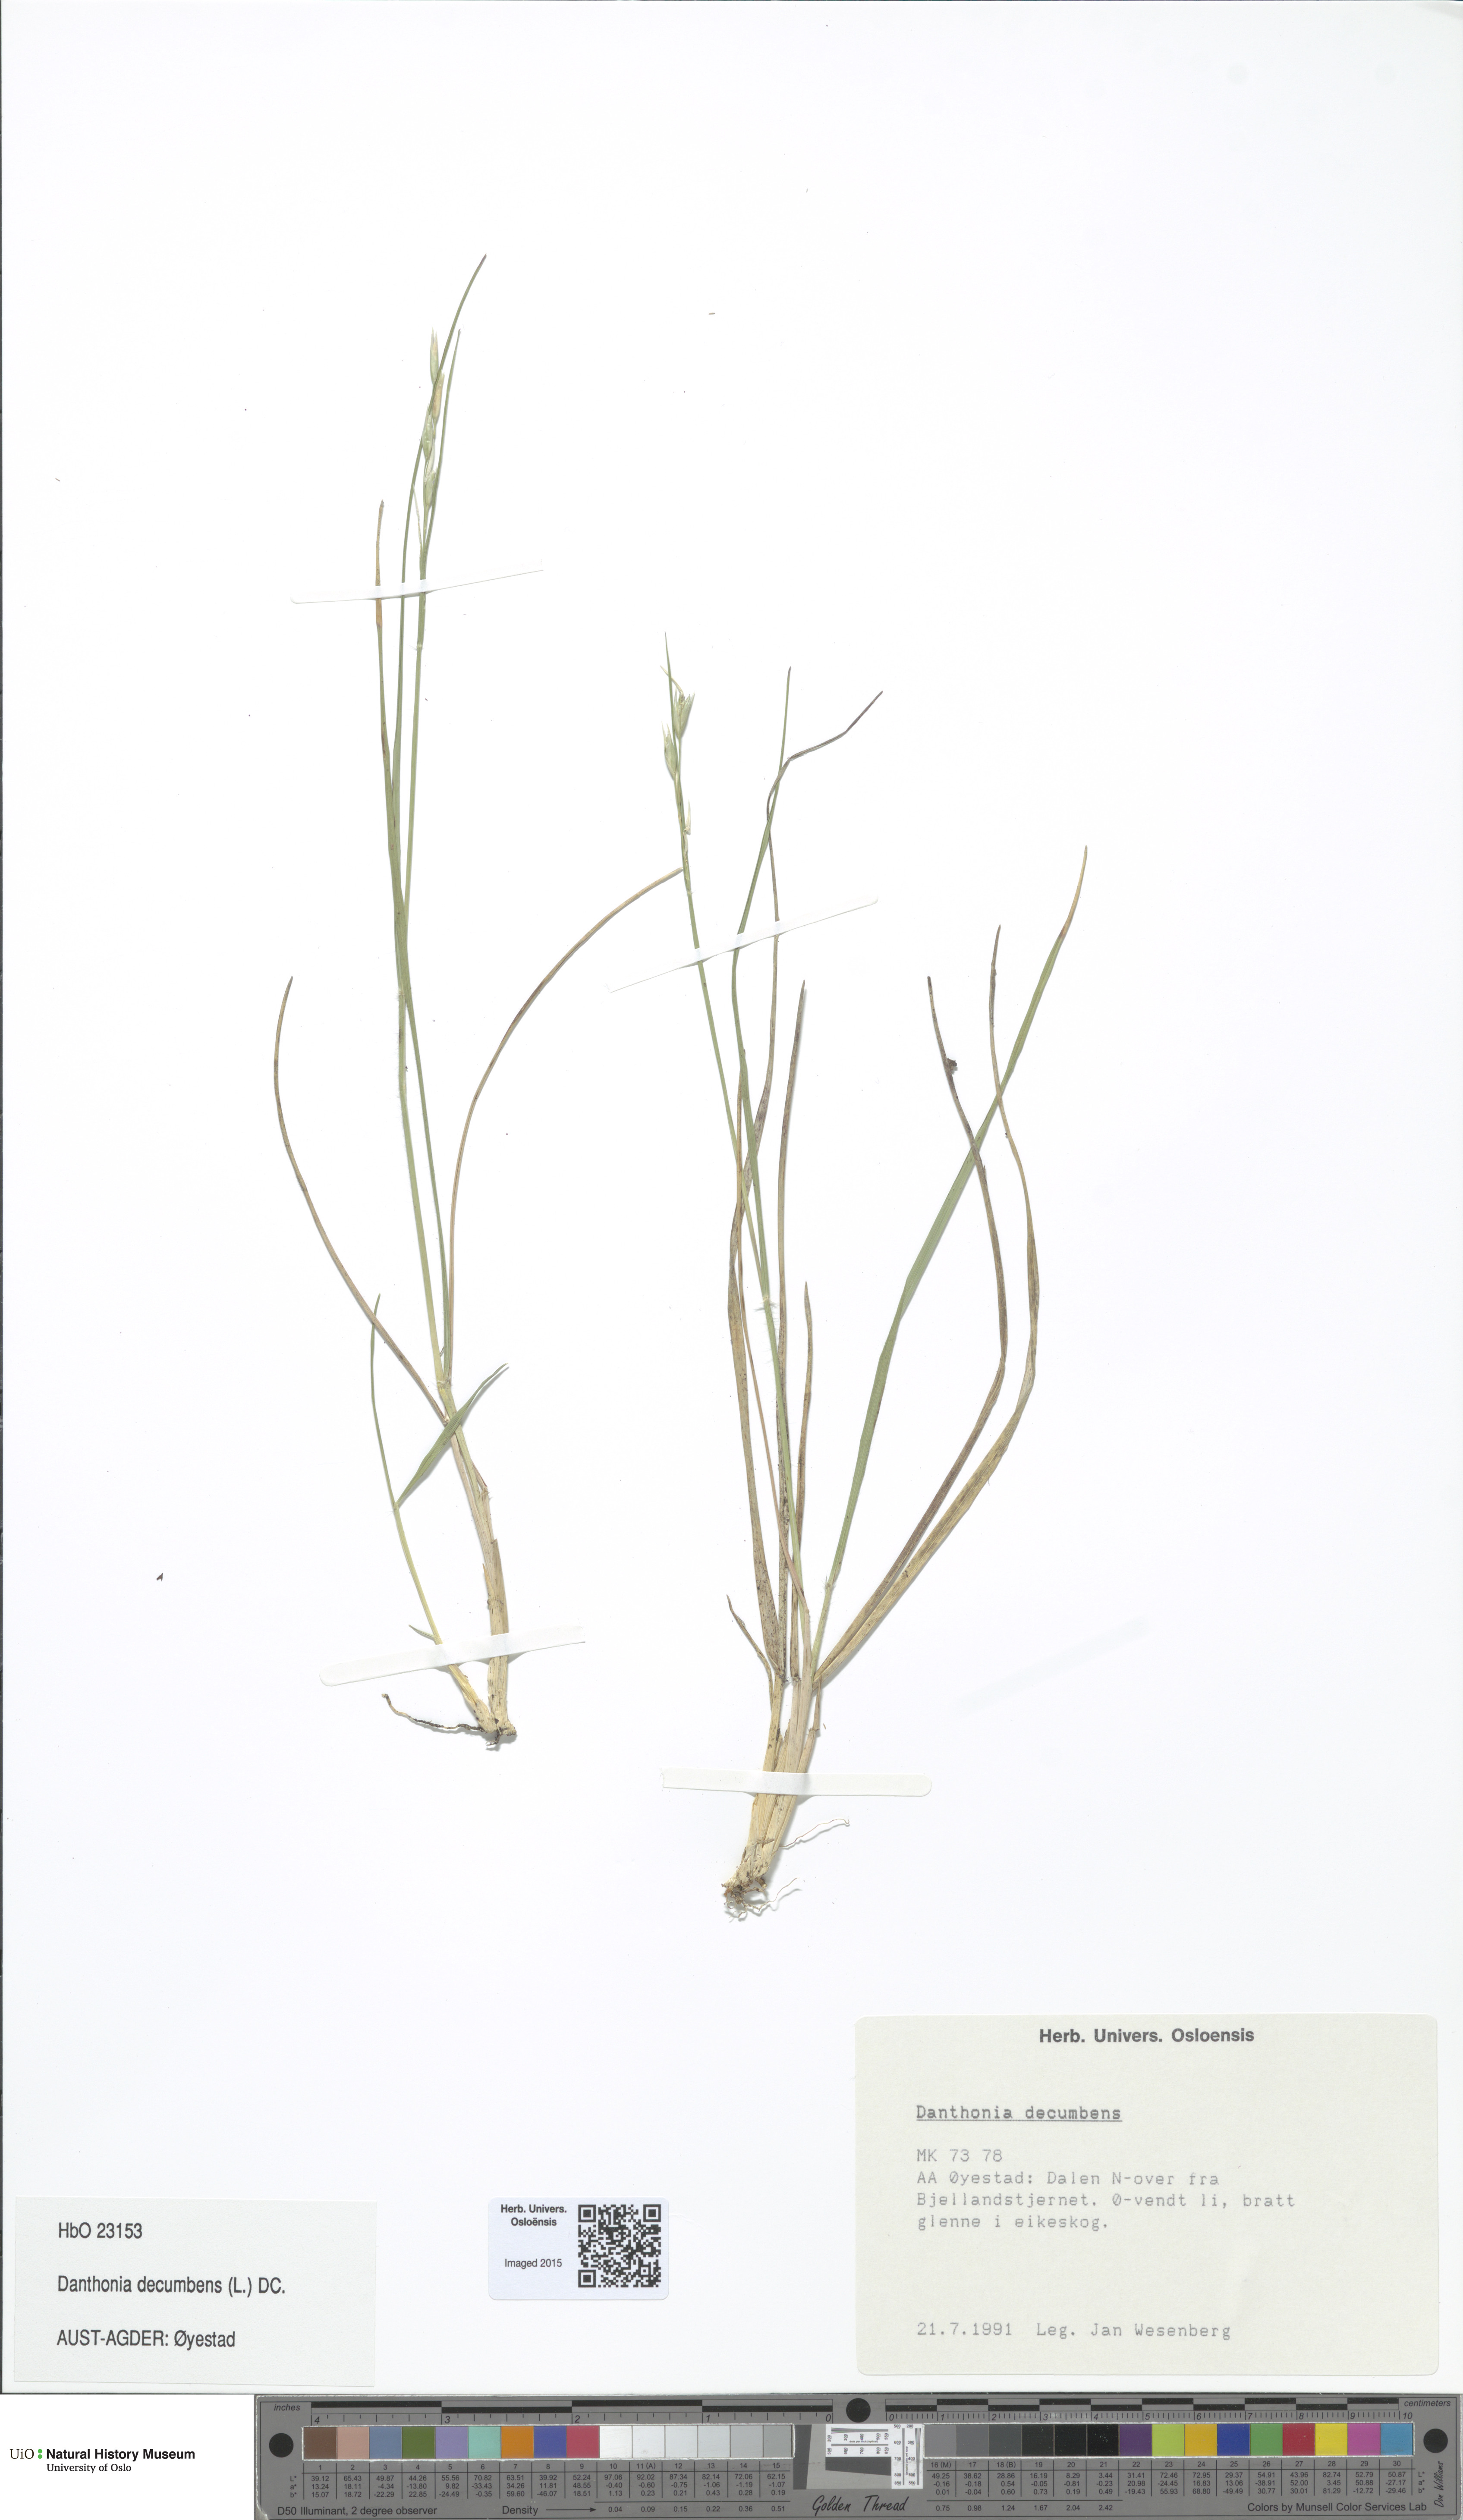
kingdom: Plantae
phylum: Tracheophyta
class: Liliopsida
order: Poales
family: Poaceae
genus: Danthonia
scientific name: Danthonia decumbens
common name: Common heathgrass
